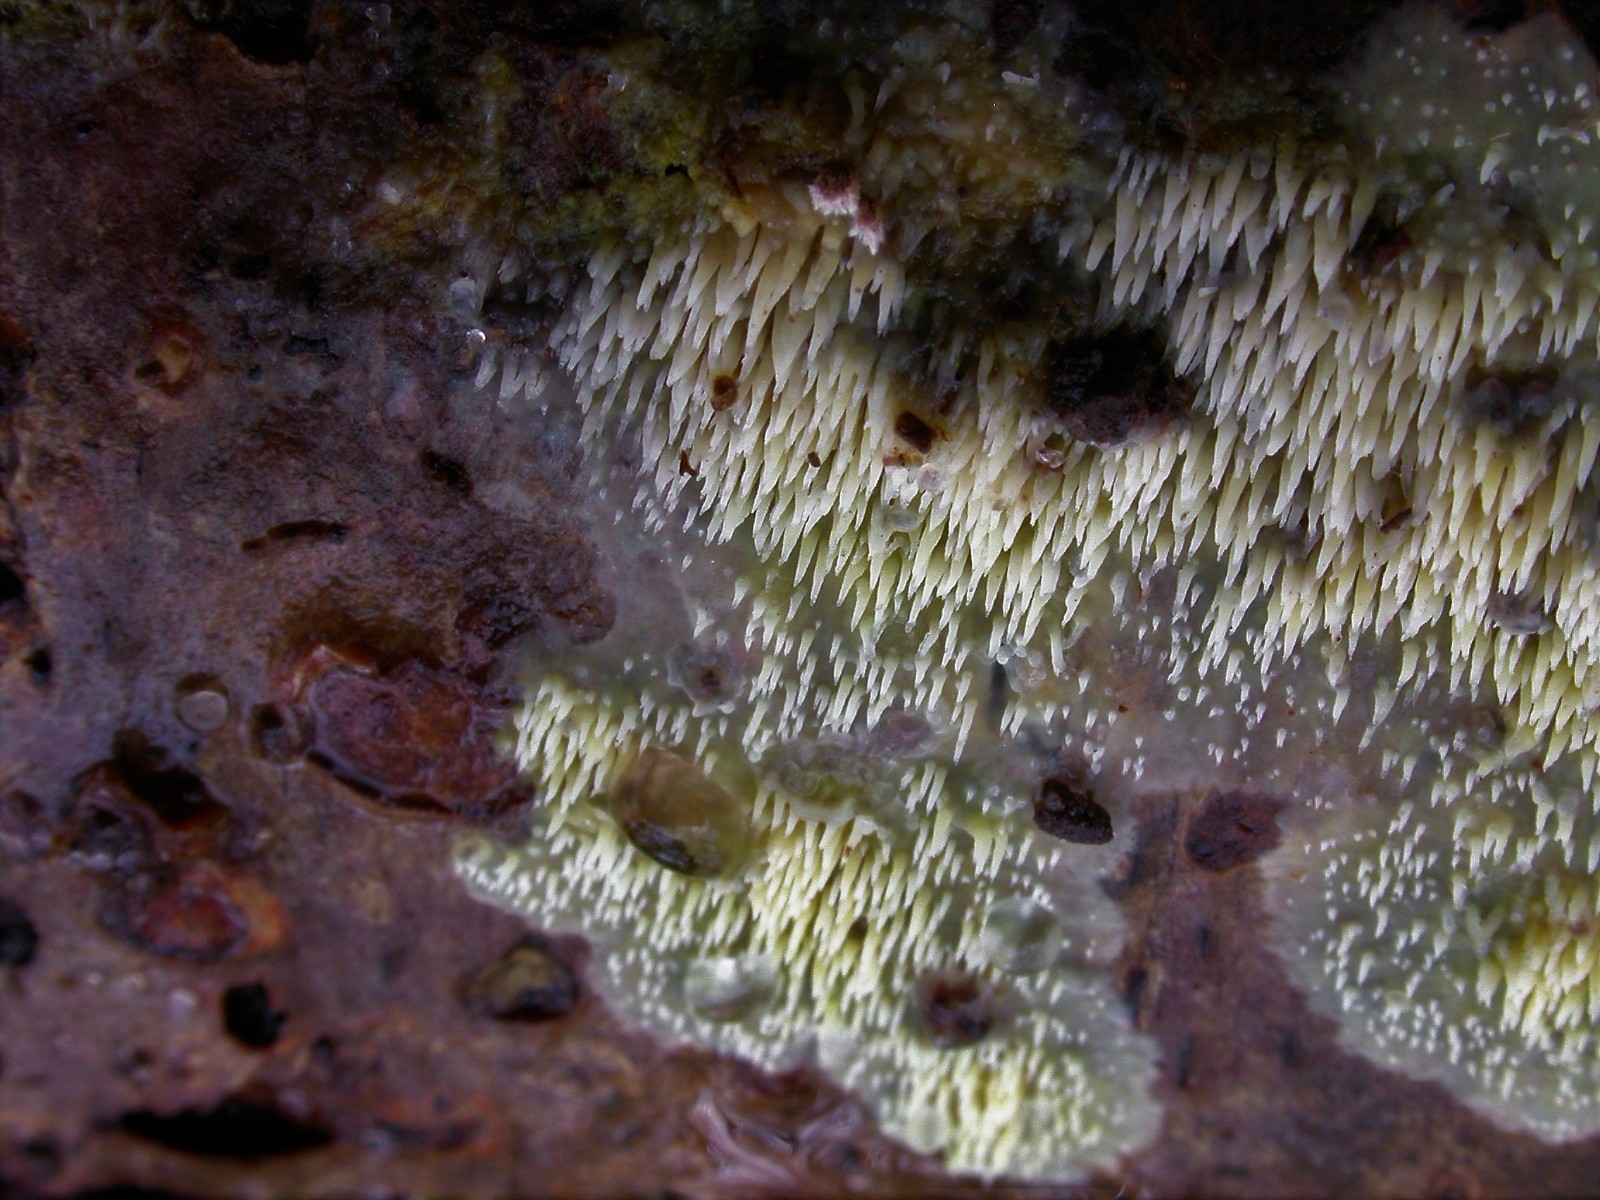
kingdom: Fungi
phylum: Basidiomycota
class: Agaricomycetes
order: Polyporales
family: Meruliaceae
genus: Mycoacia
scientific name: Mycoacia uda
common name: citrongul vokspig
